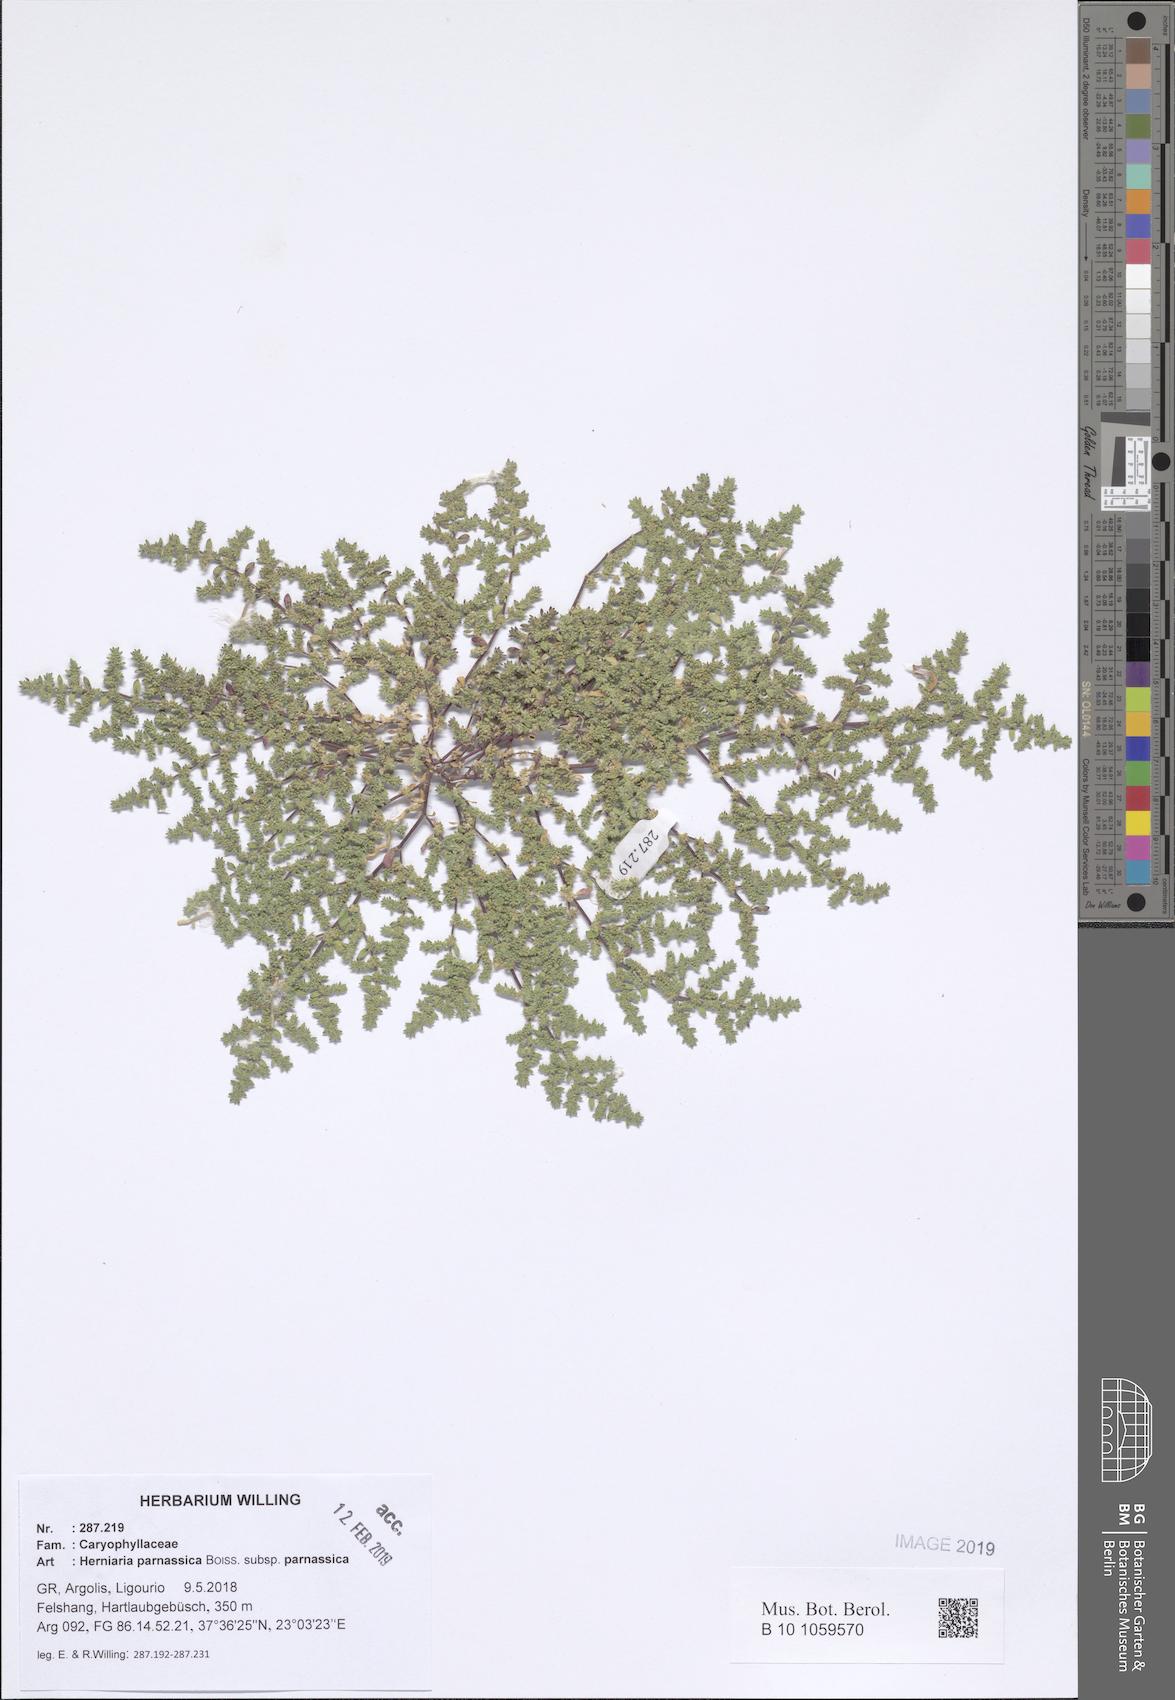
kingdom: Plantae
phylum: Tracheophyta
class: Magnoliopsida
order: Caryophyllales
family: Caryophyllaceae
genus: Herniaria
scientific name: Herniaria parnassica
